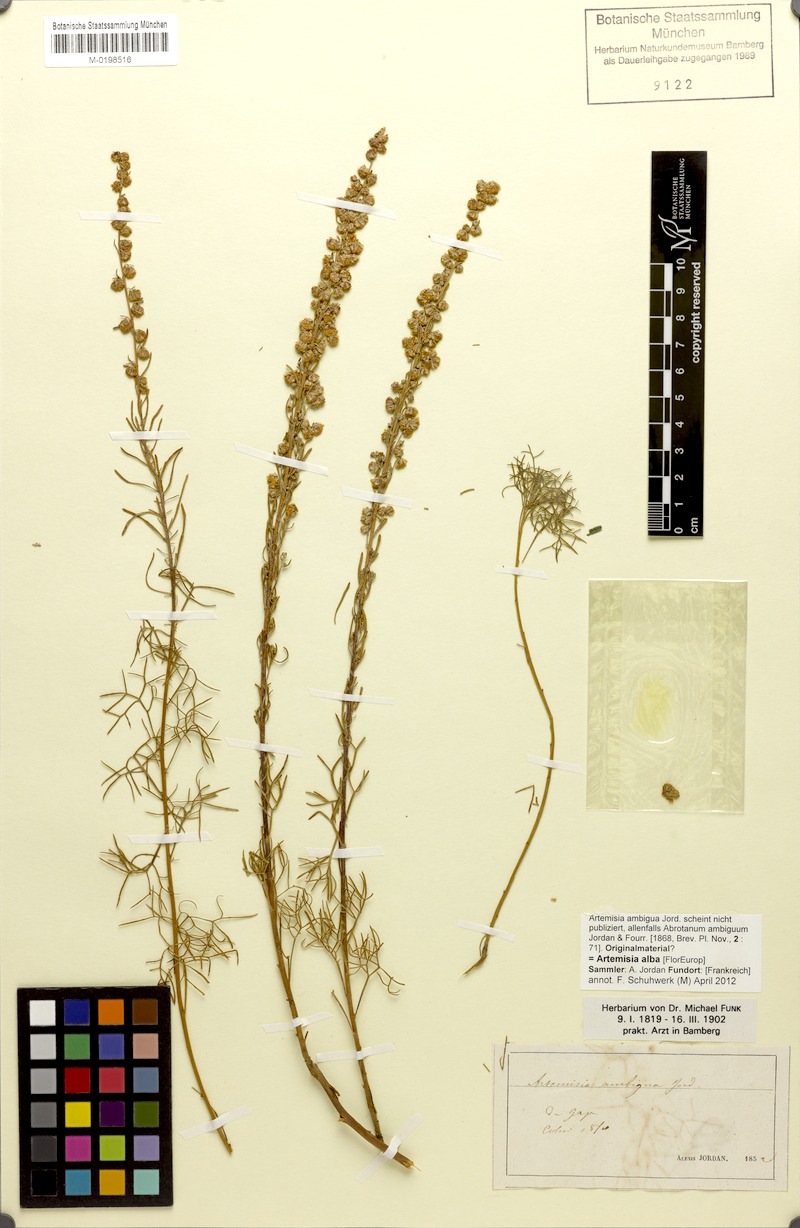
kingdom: Plantae
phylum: Tracheophyta
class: Magnoliopsida
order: Asterales
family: Asteraceae
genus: Artemisia
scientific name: Artemisia alba
